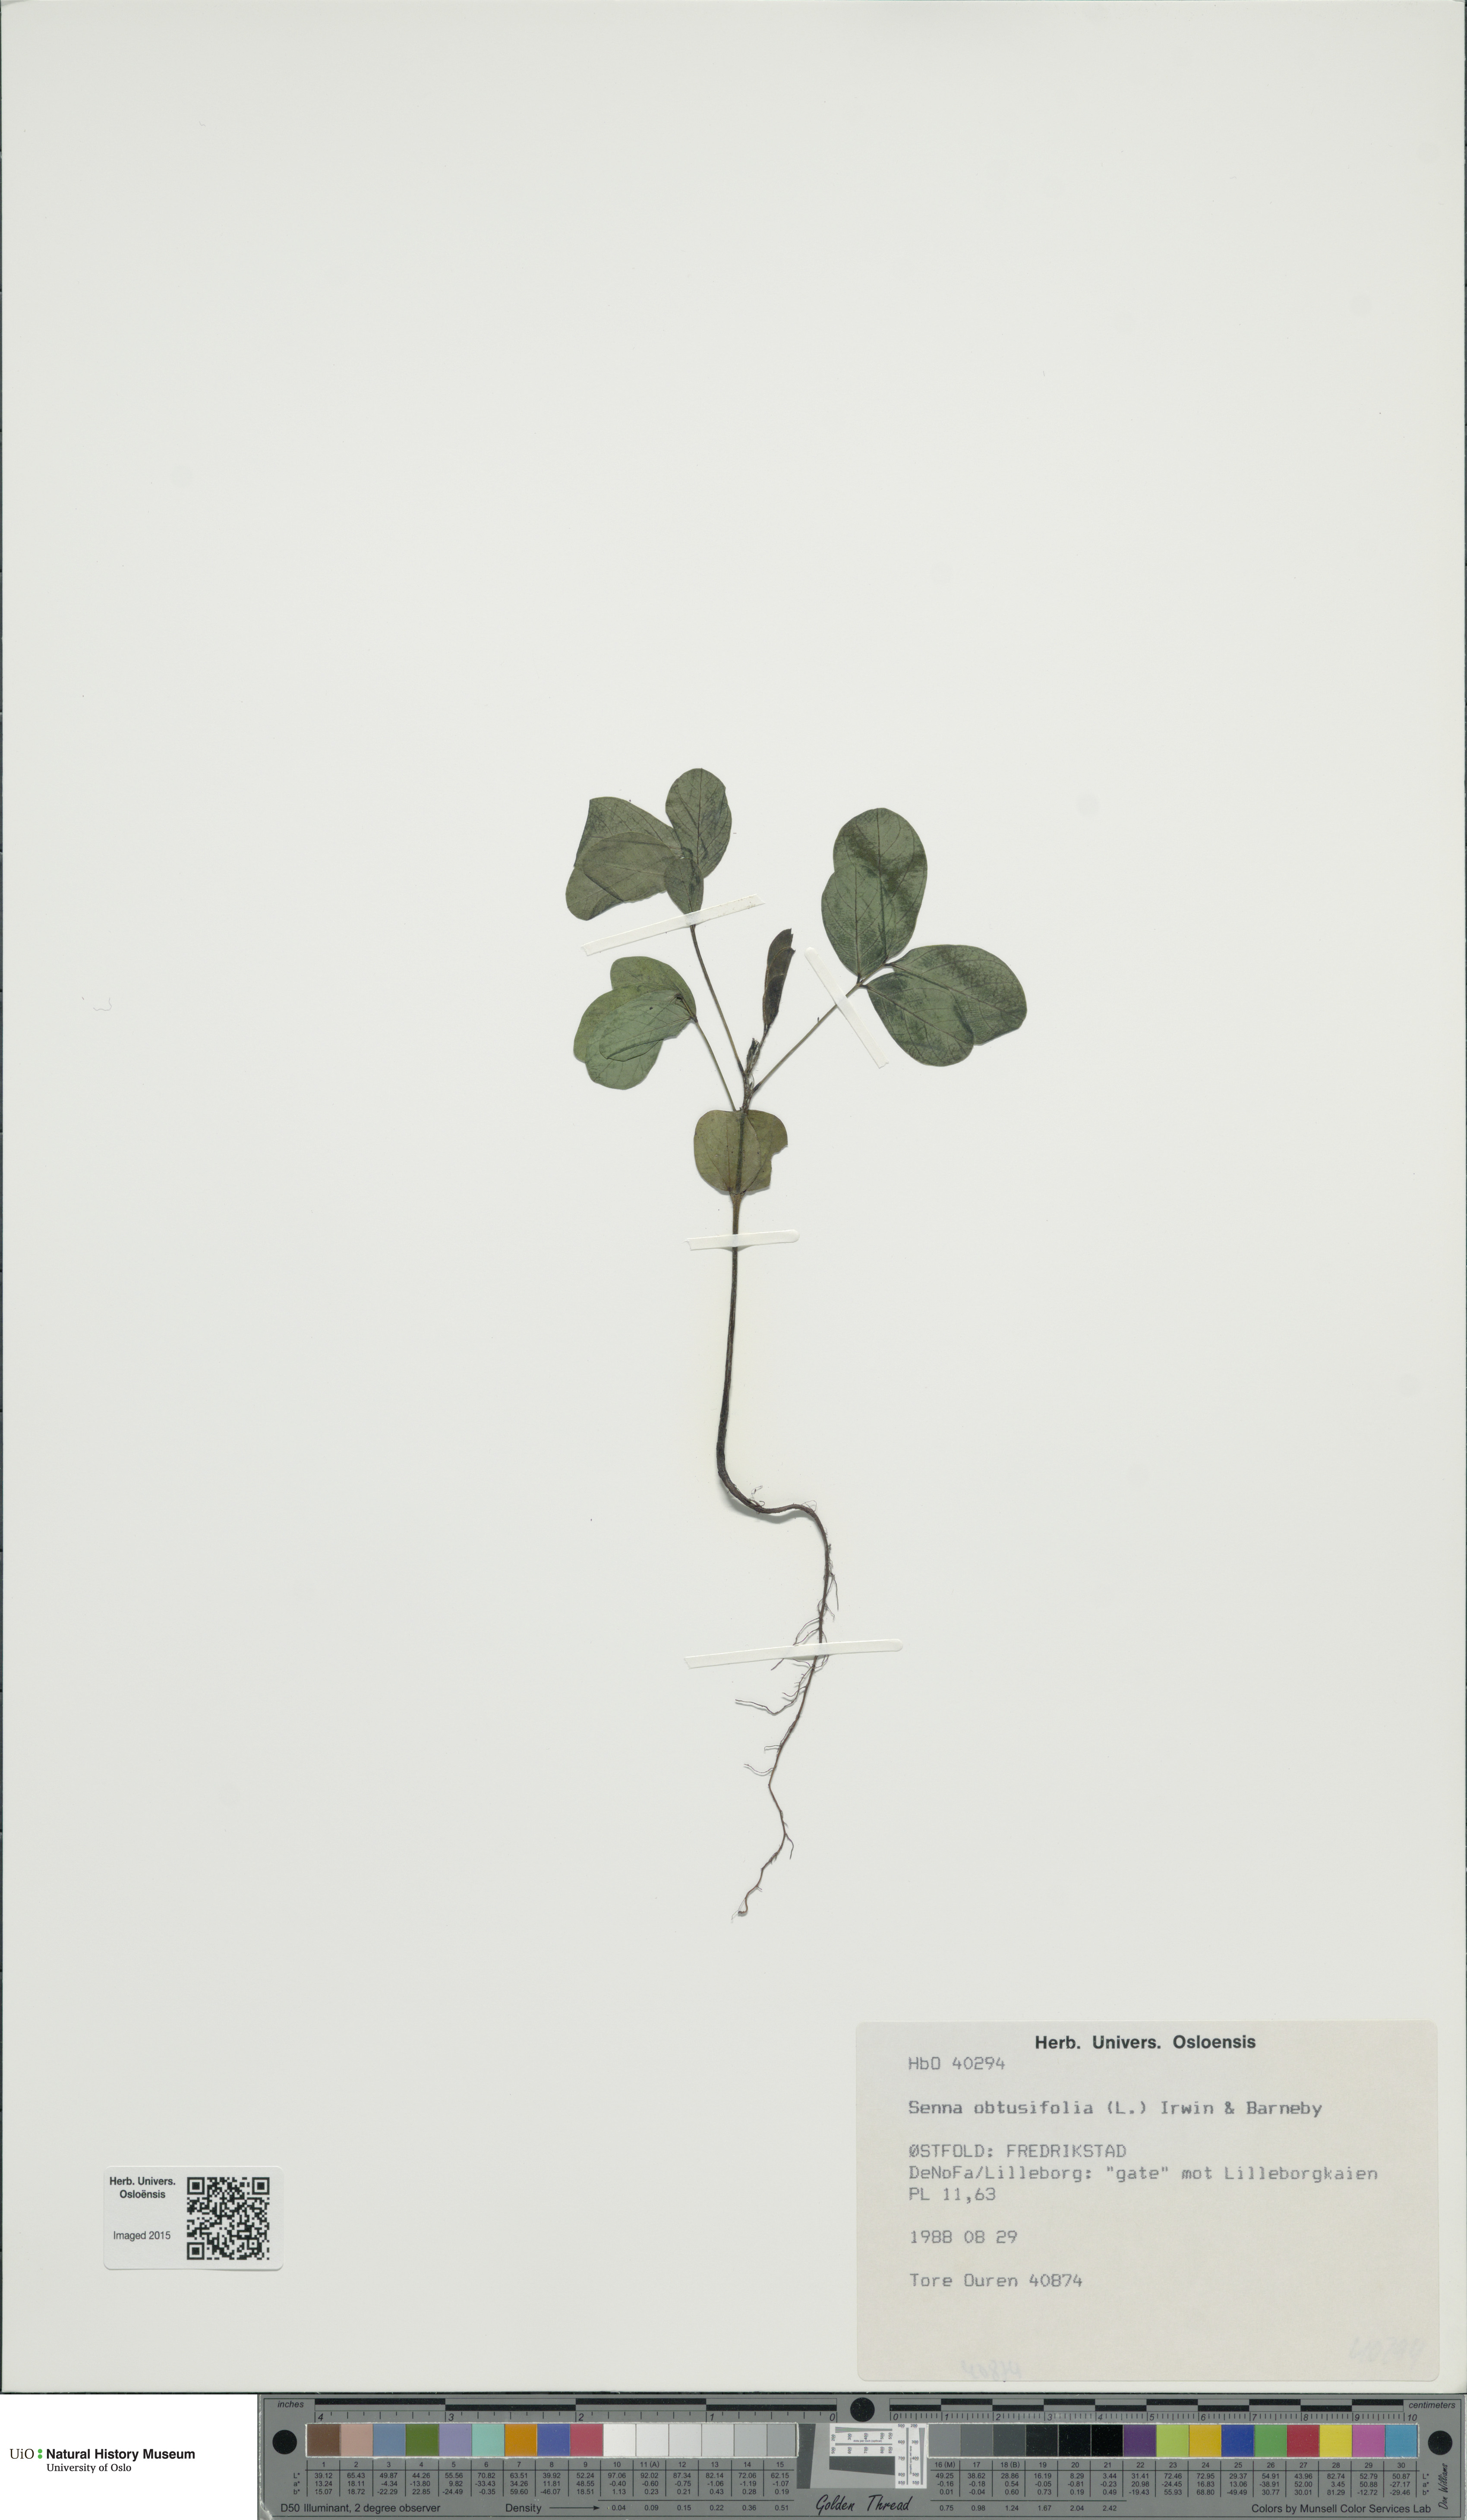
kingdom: Plantae
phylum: Tracheophyta
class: Magnoliopsida
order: Fabales
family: Fabaceae
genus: Senna
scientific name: Senna obtusifolia
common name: Java-bean
